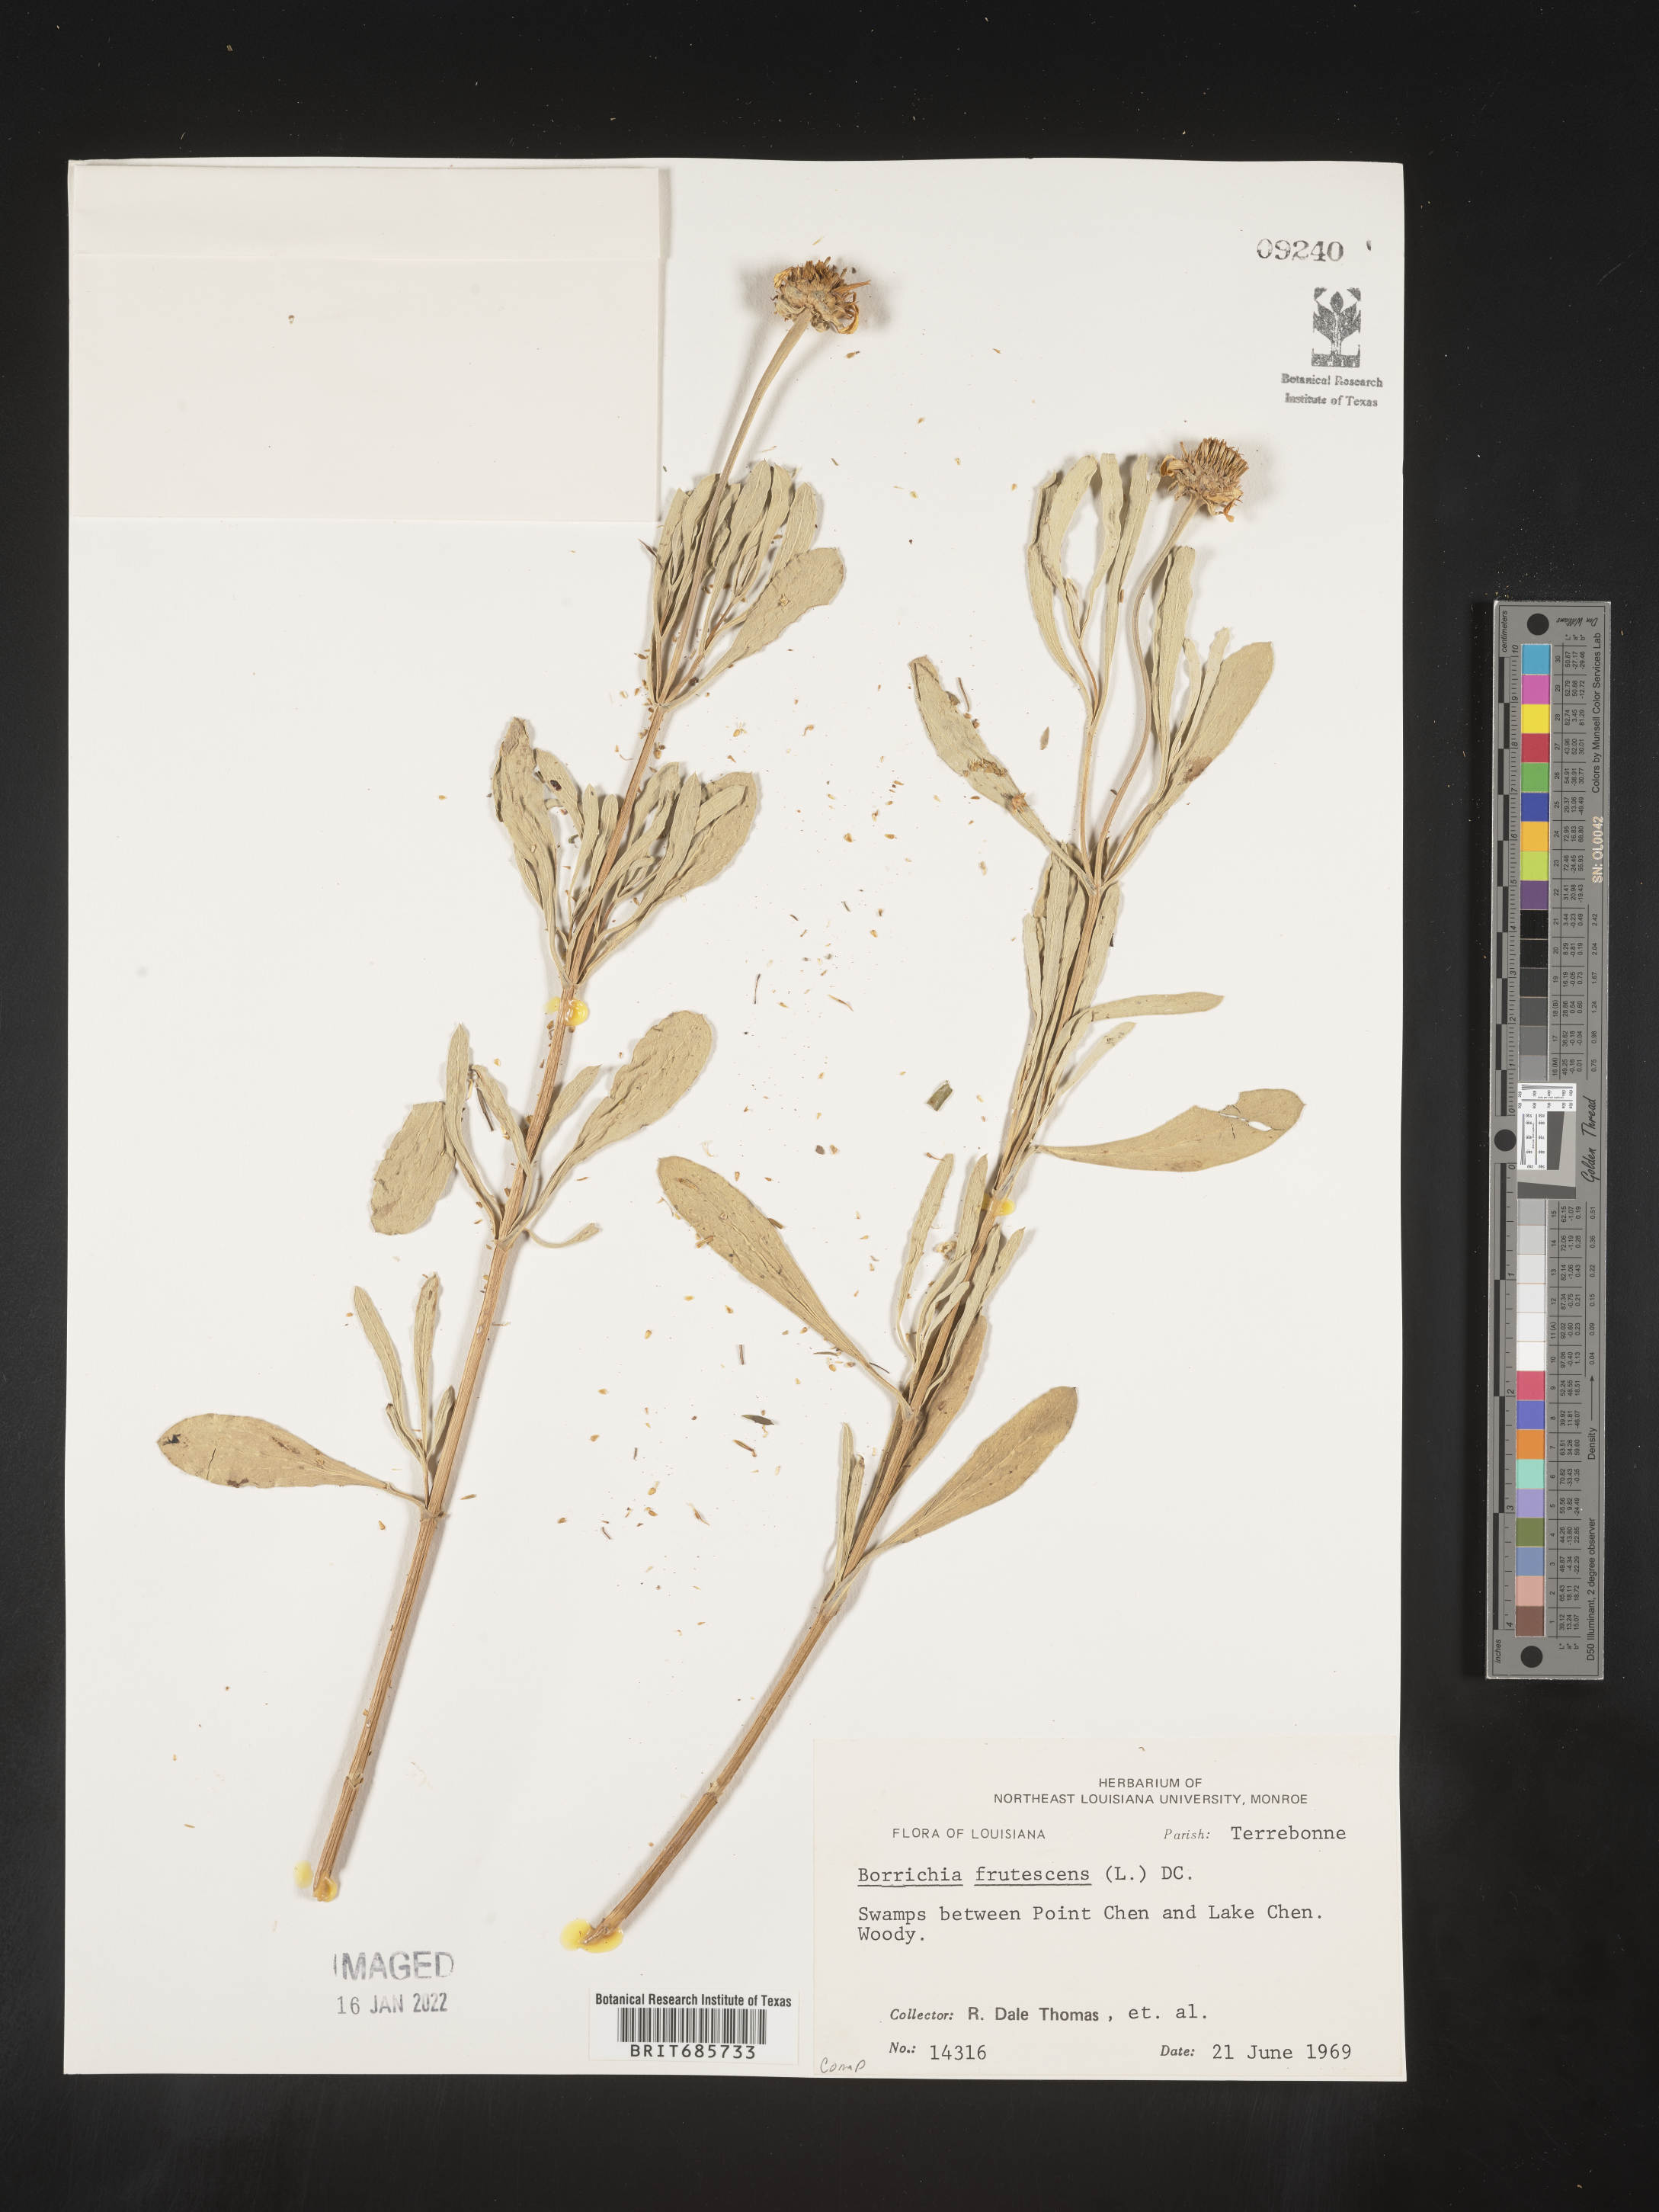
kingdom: Plantae
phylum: Tracheophyta
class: Magnoliopsida
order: Asterales
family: Asteraceae
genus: Borrichia
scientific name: Borrichia frutescens
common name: Sea oxeye
